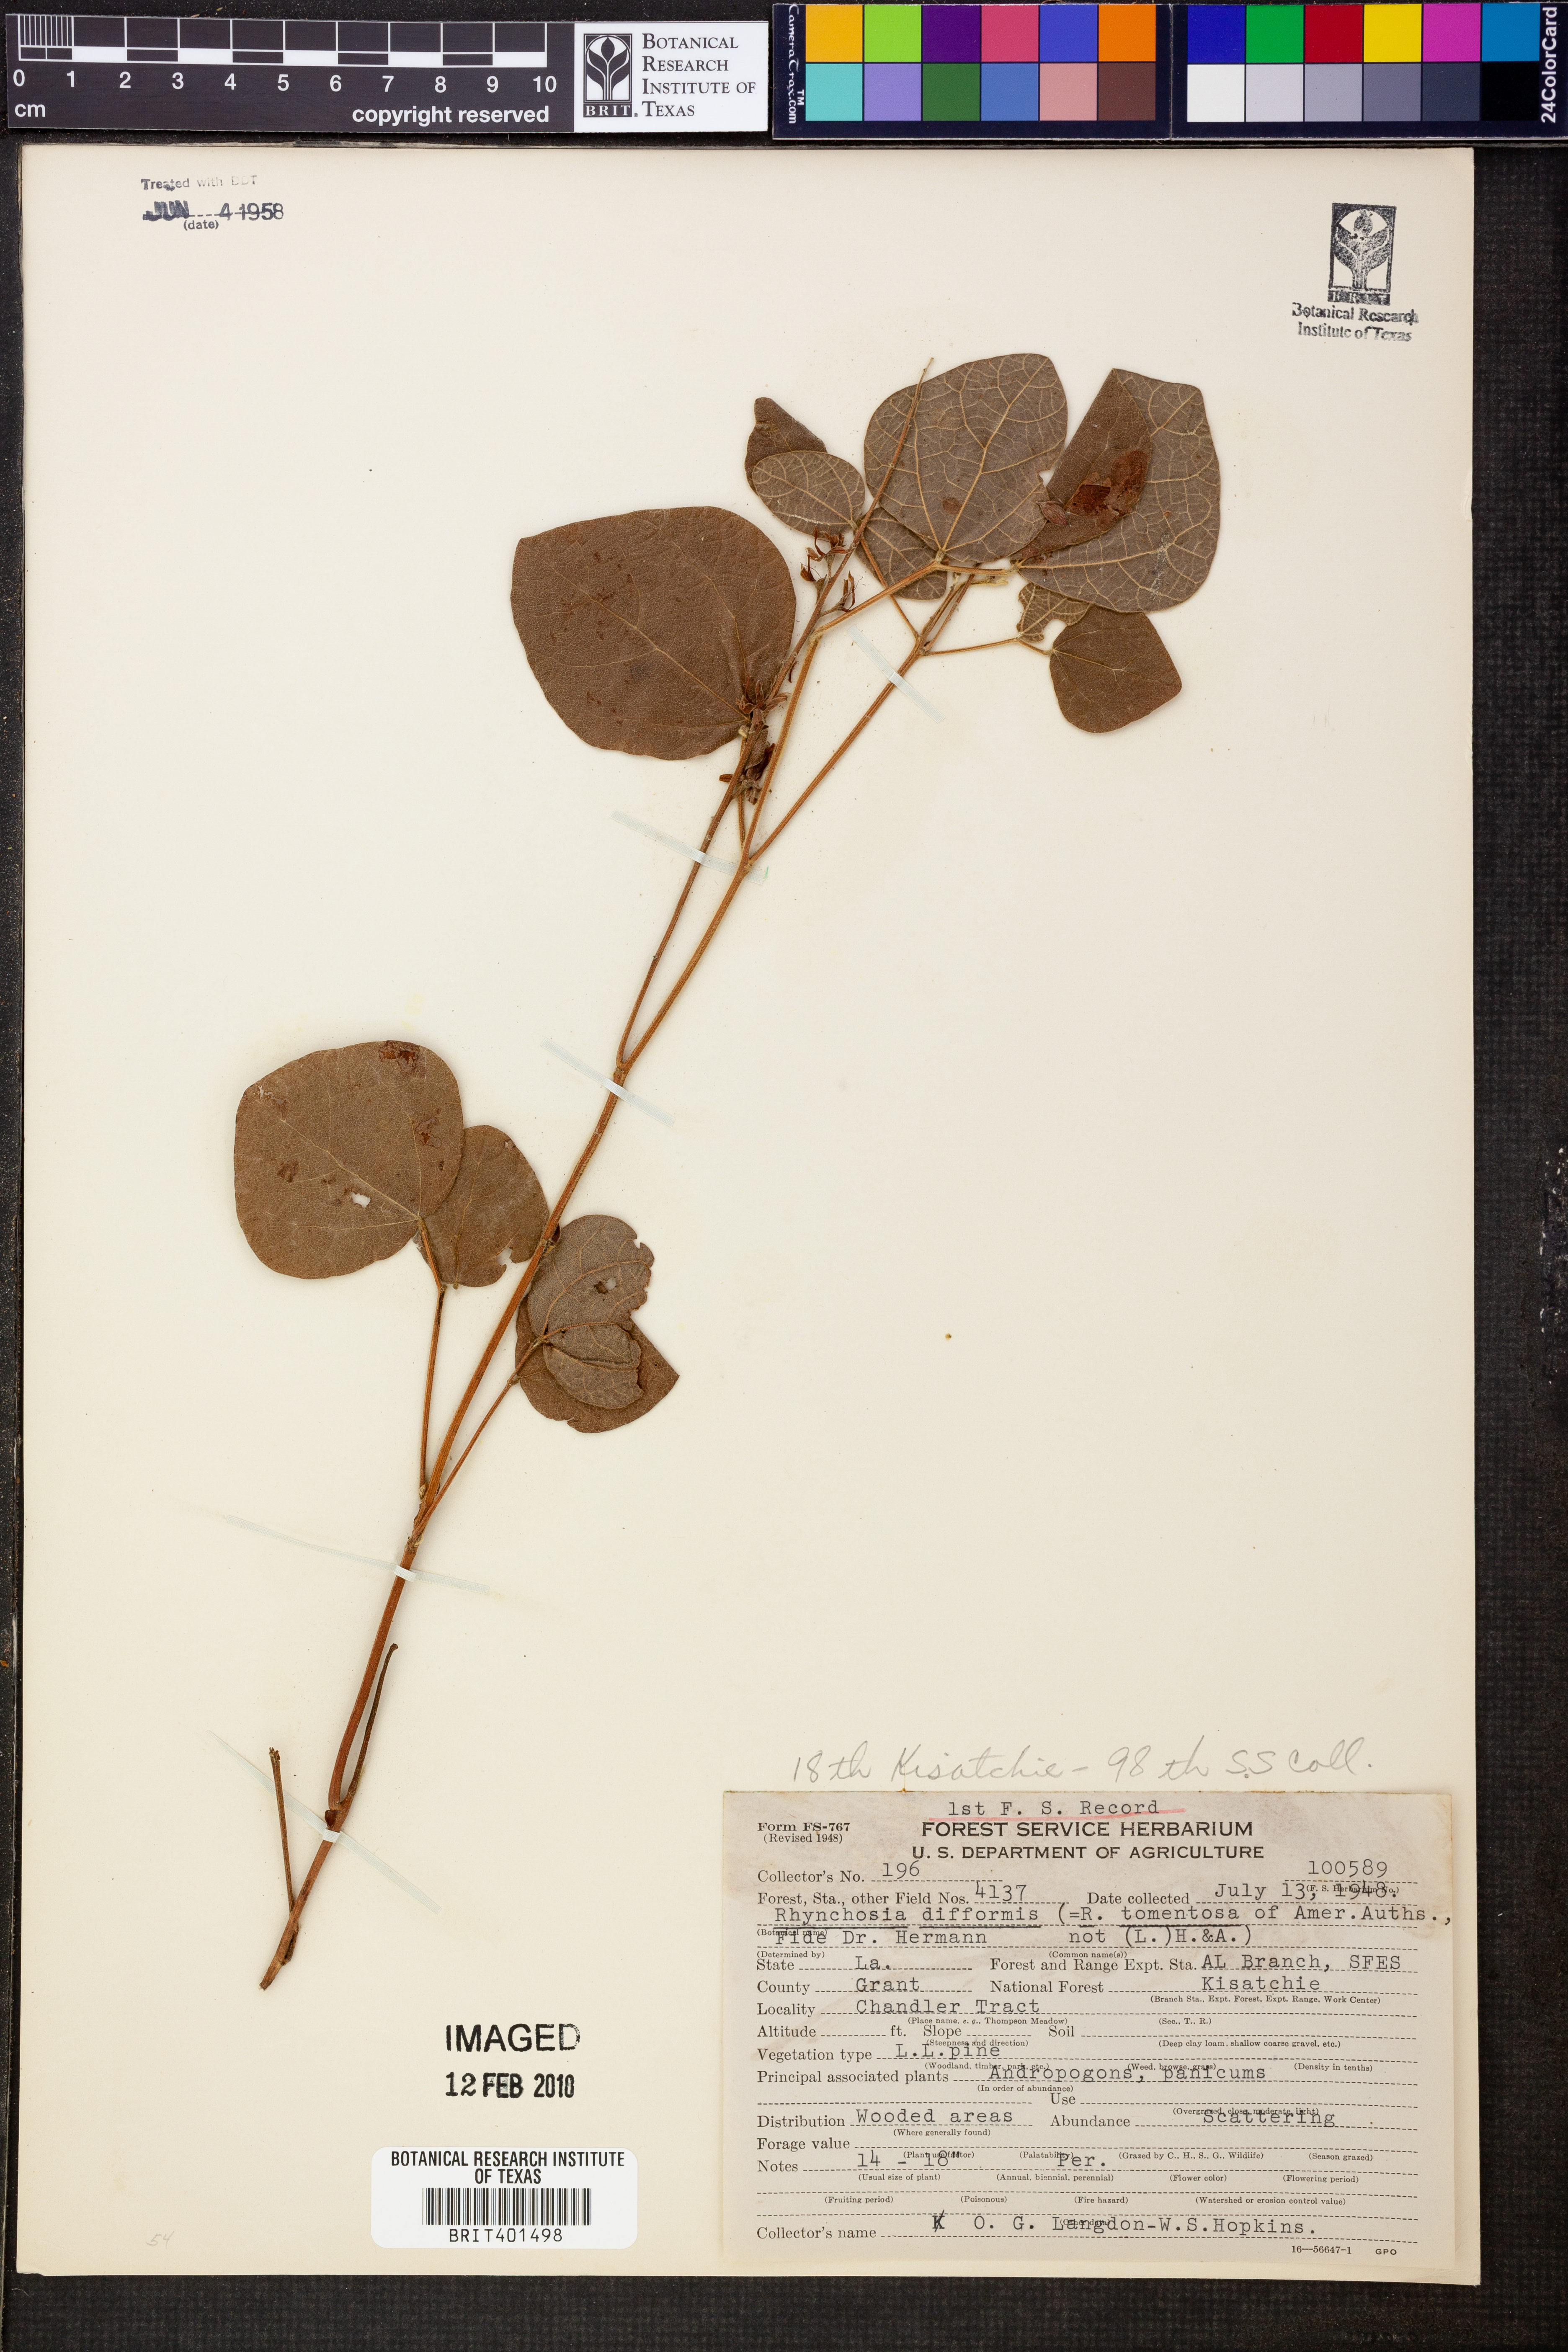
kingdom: Plantae
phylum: Tracheophyta
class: Magnoliopsida
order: Fabales
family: Fabaceae
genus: Rhynchosia
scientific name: Rhynchosia difformis
